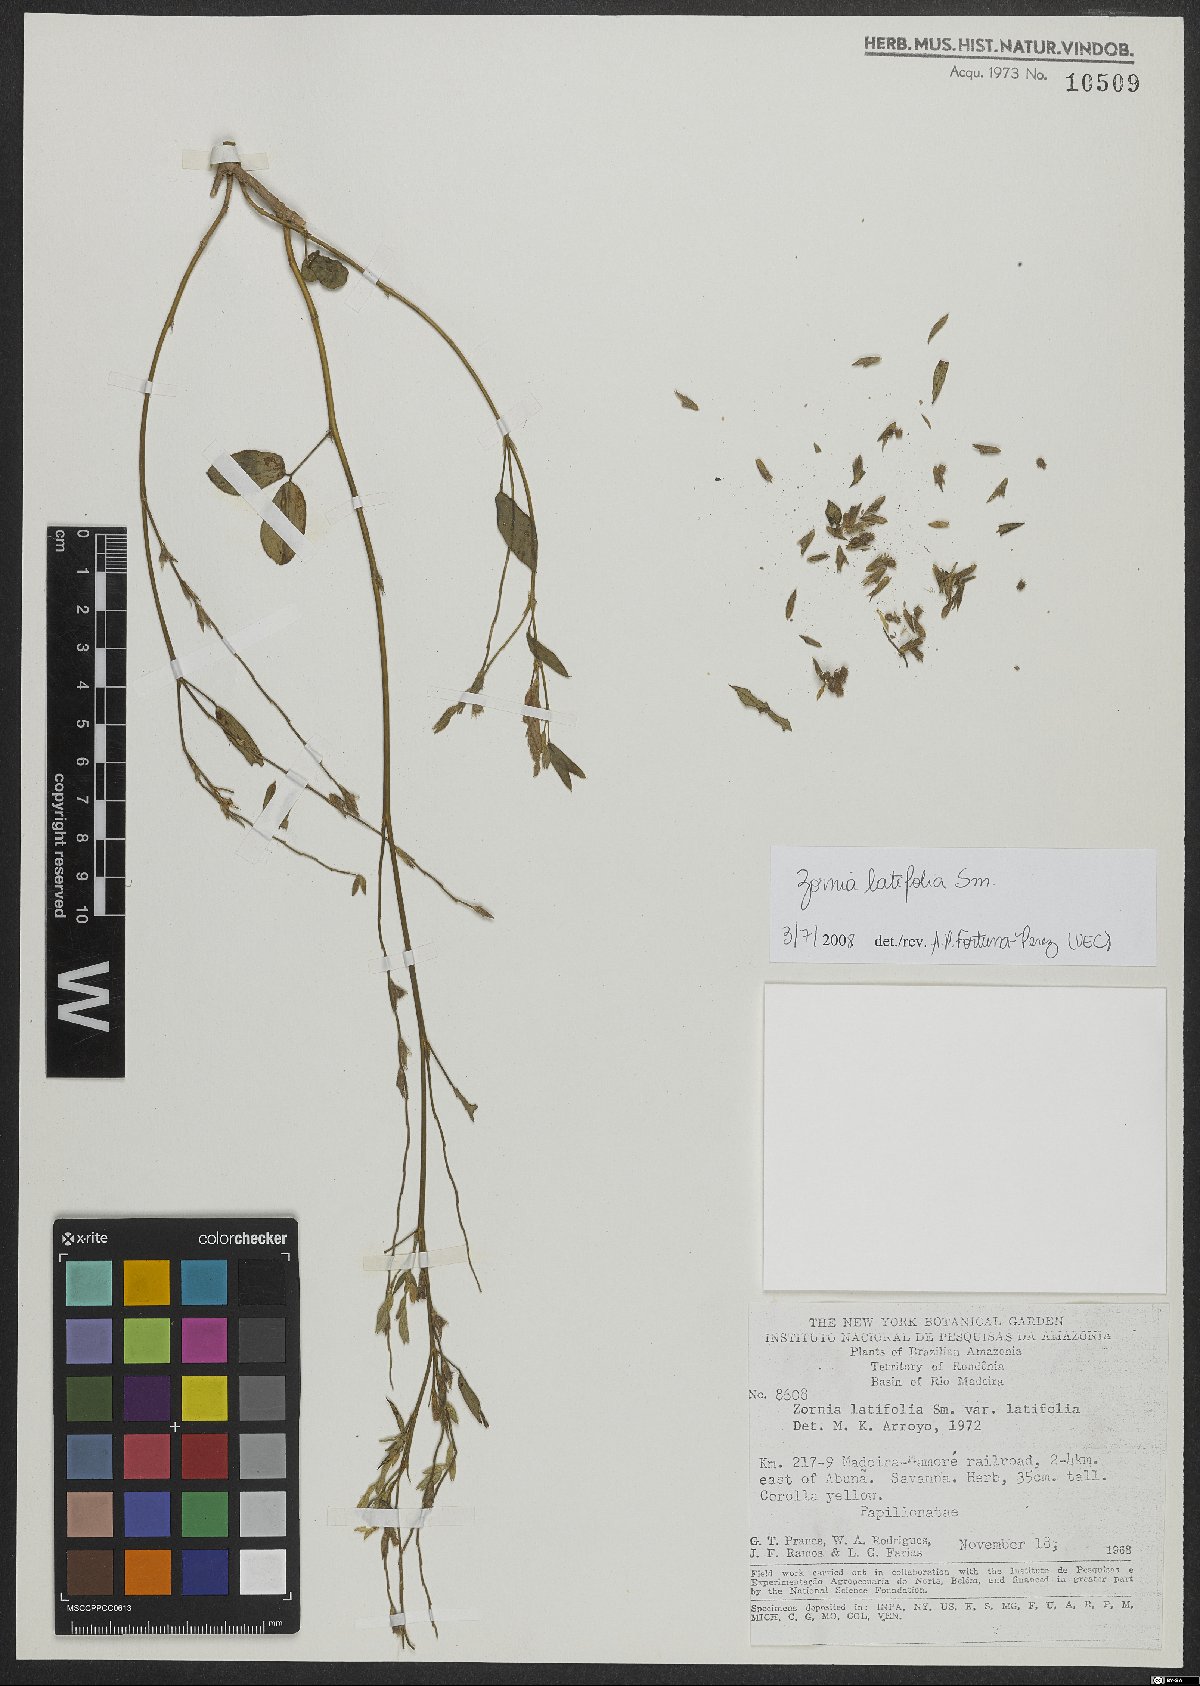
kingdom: Plantae
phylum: Tracheophyta
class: Magnoliopsida
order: Fabales
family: Fabaceae
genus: Zornia
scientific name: Zornia sericea
